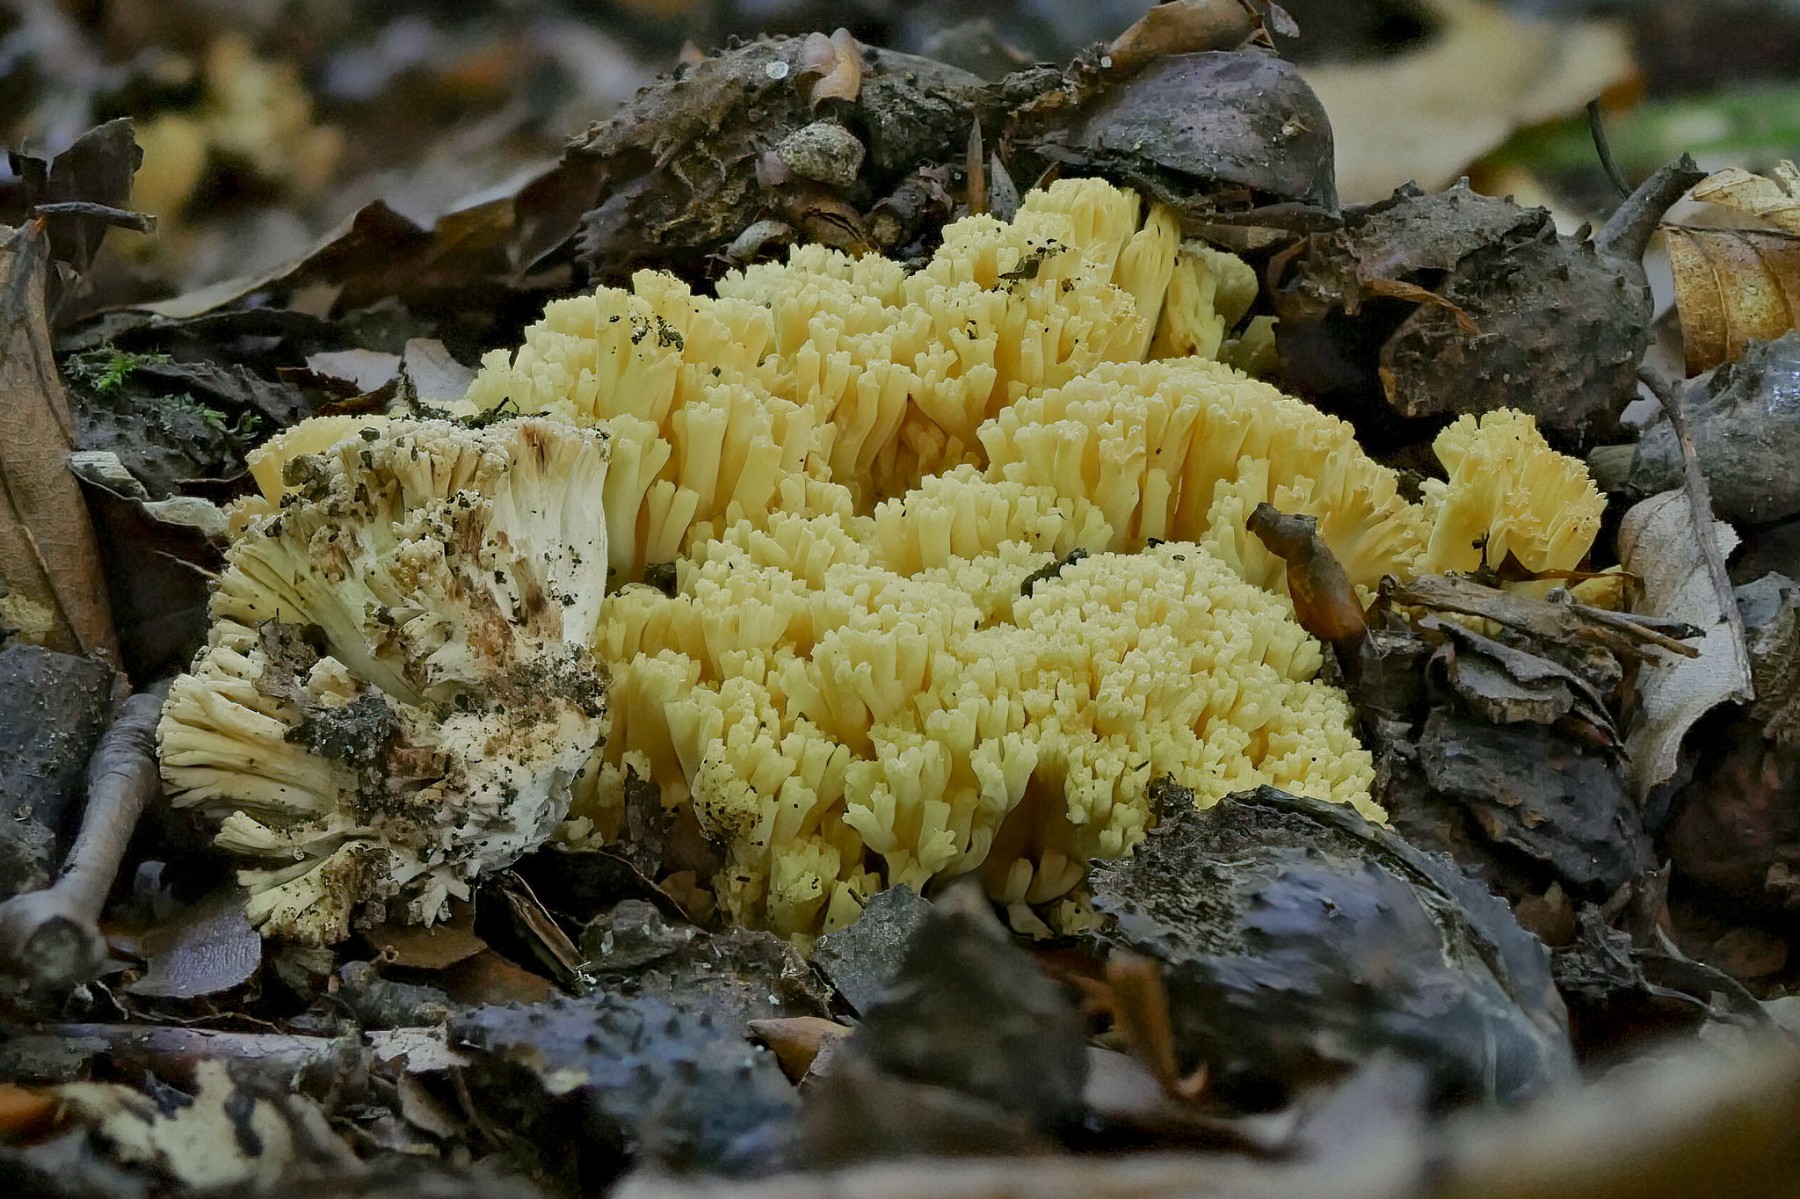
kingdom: Fungi
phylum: Basidiomycota
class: Agaricomycetes
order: Gomphales
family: Gomphaceae
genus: Ramaria
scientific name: Ramaria sanguinea
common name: blodplettet koralsvamp
